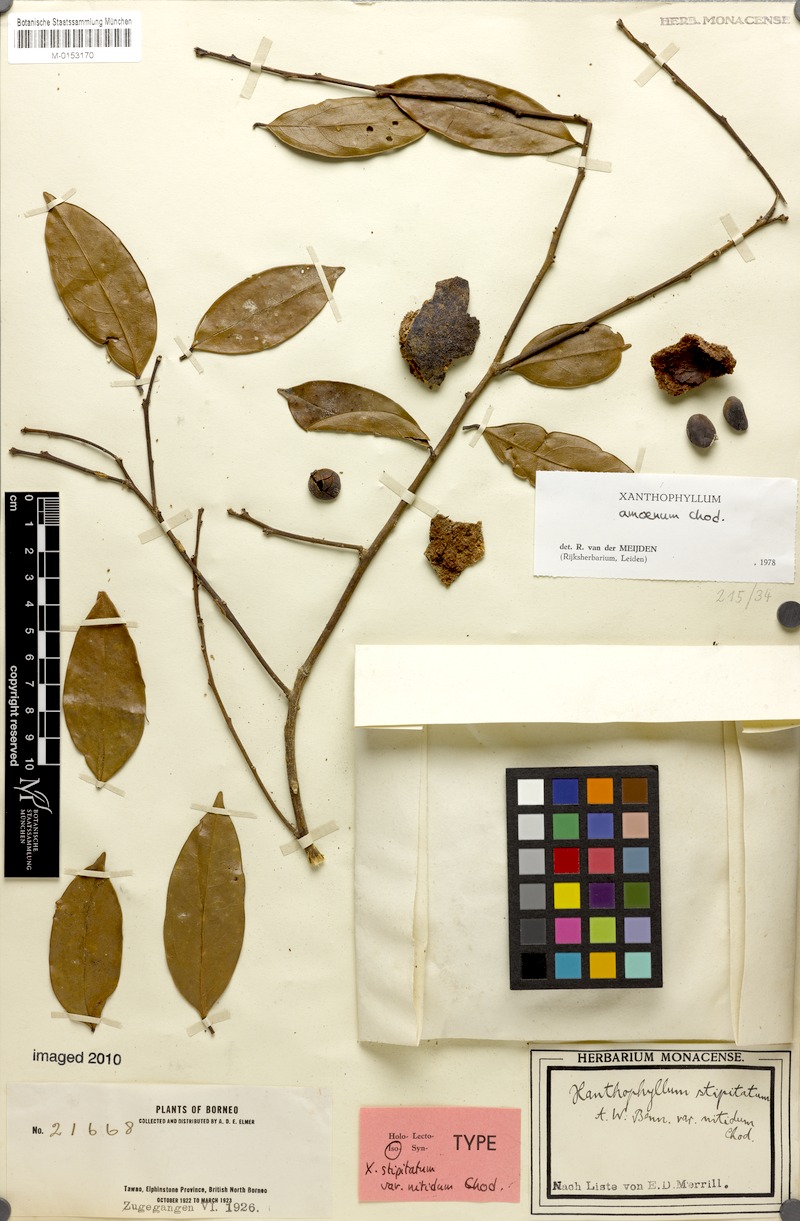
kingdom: Plantae
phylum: Tracheophyta
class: Magnoliopsida
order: Fabales
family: Polygalaceae
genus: Xanthophyllum
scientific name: Xanthophyllum stipitatum
